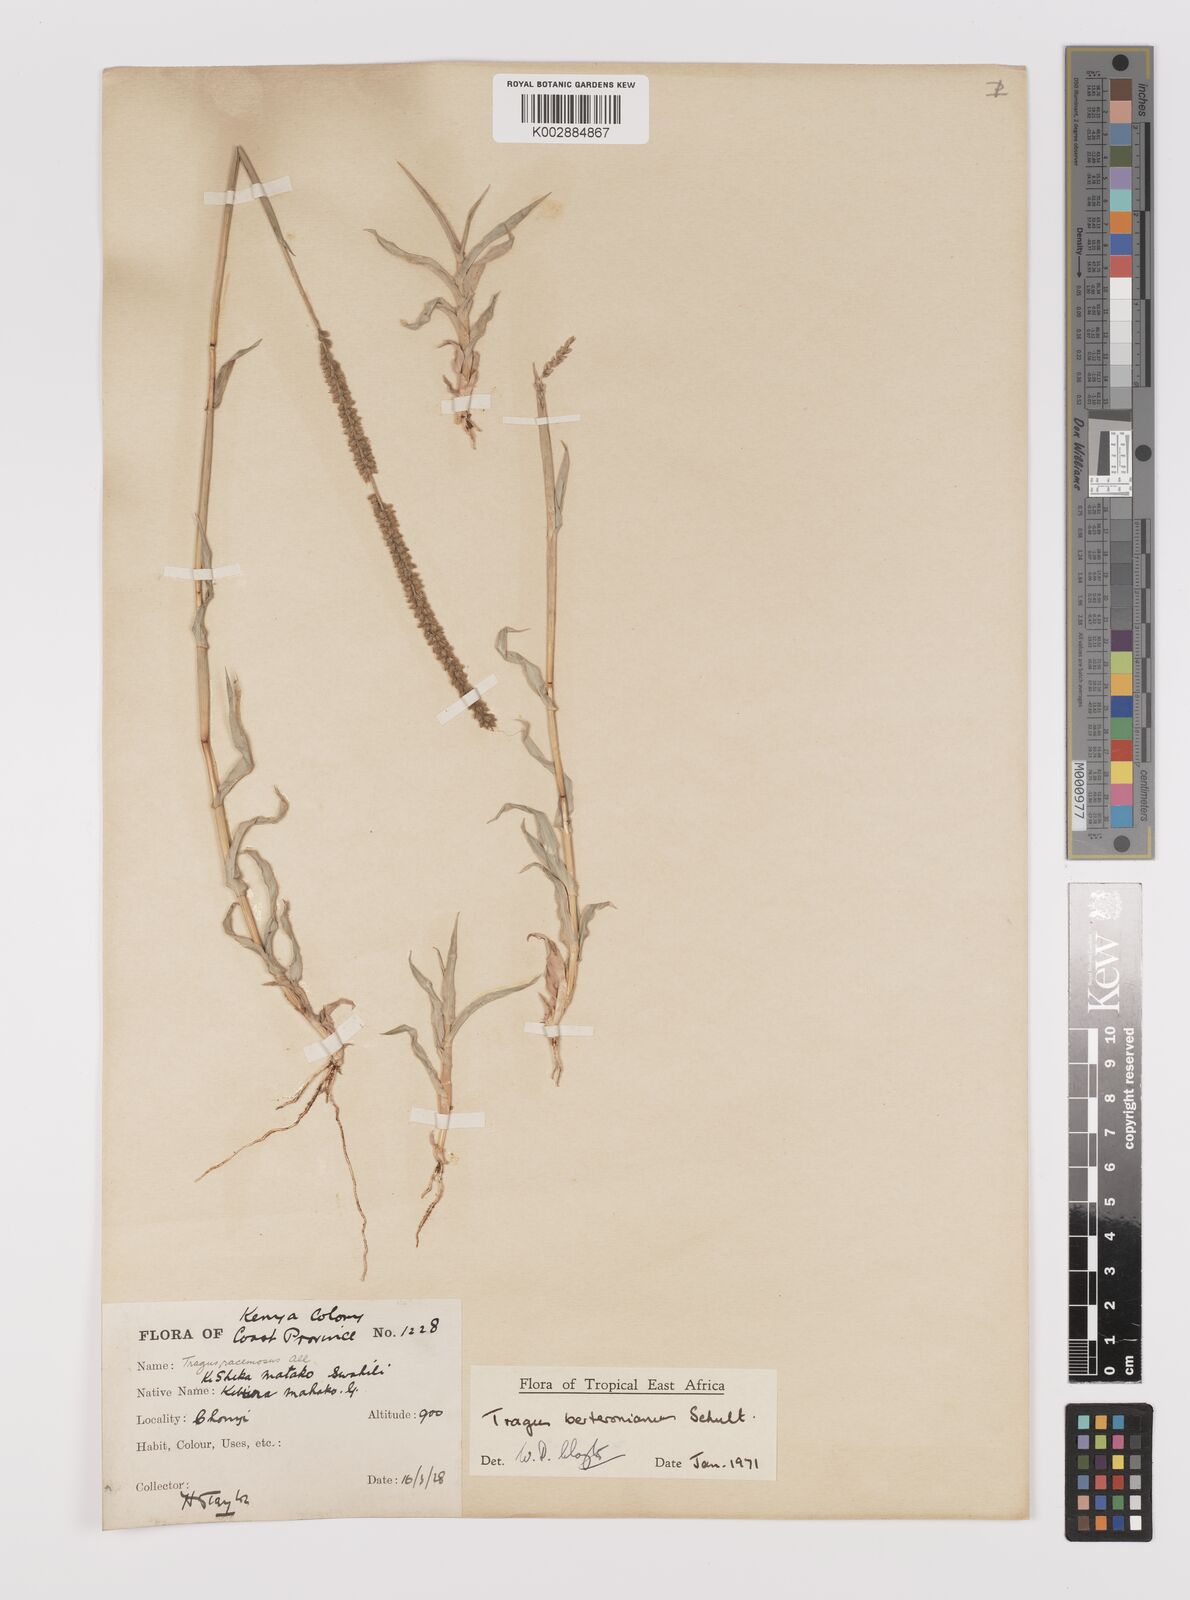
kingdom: Plantae
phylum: Tracheophyta
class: Liliopsida
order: Poales
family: Poaceae
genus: Tragus
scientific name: Tragus berteronianus
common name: African bur-grass
